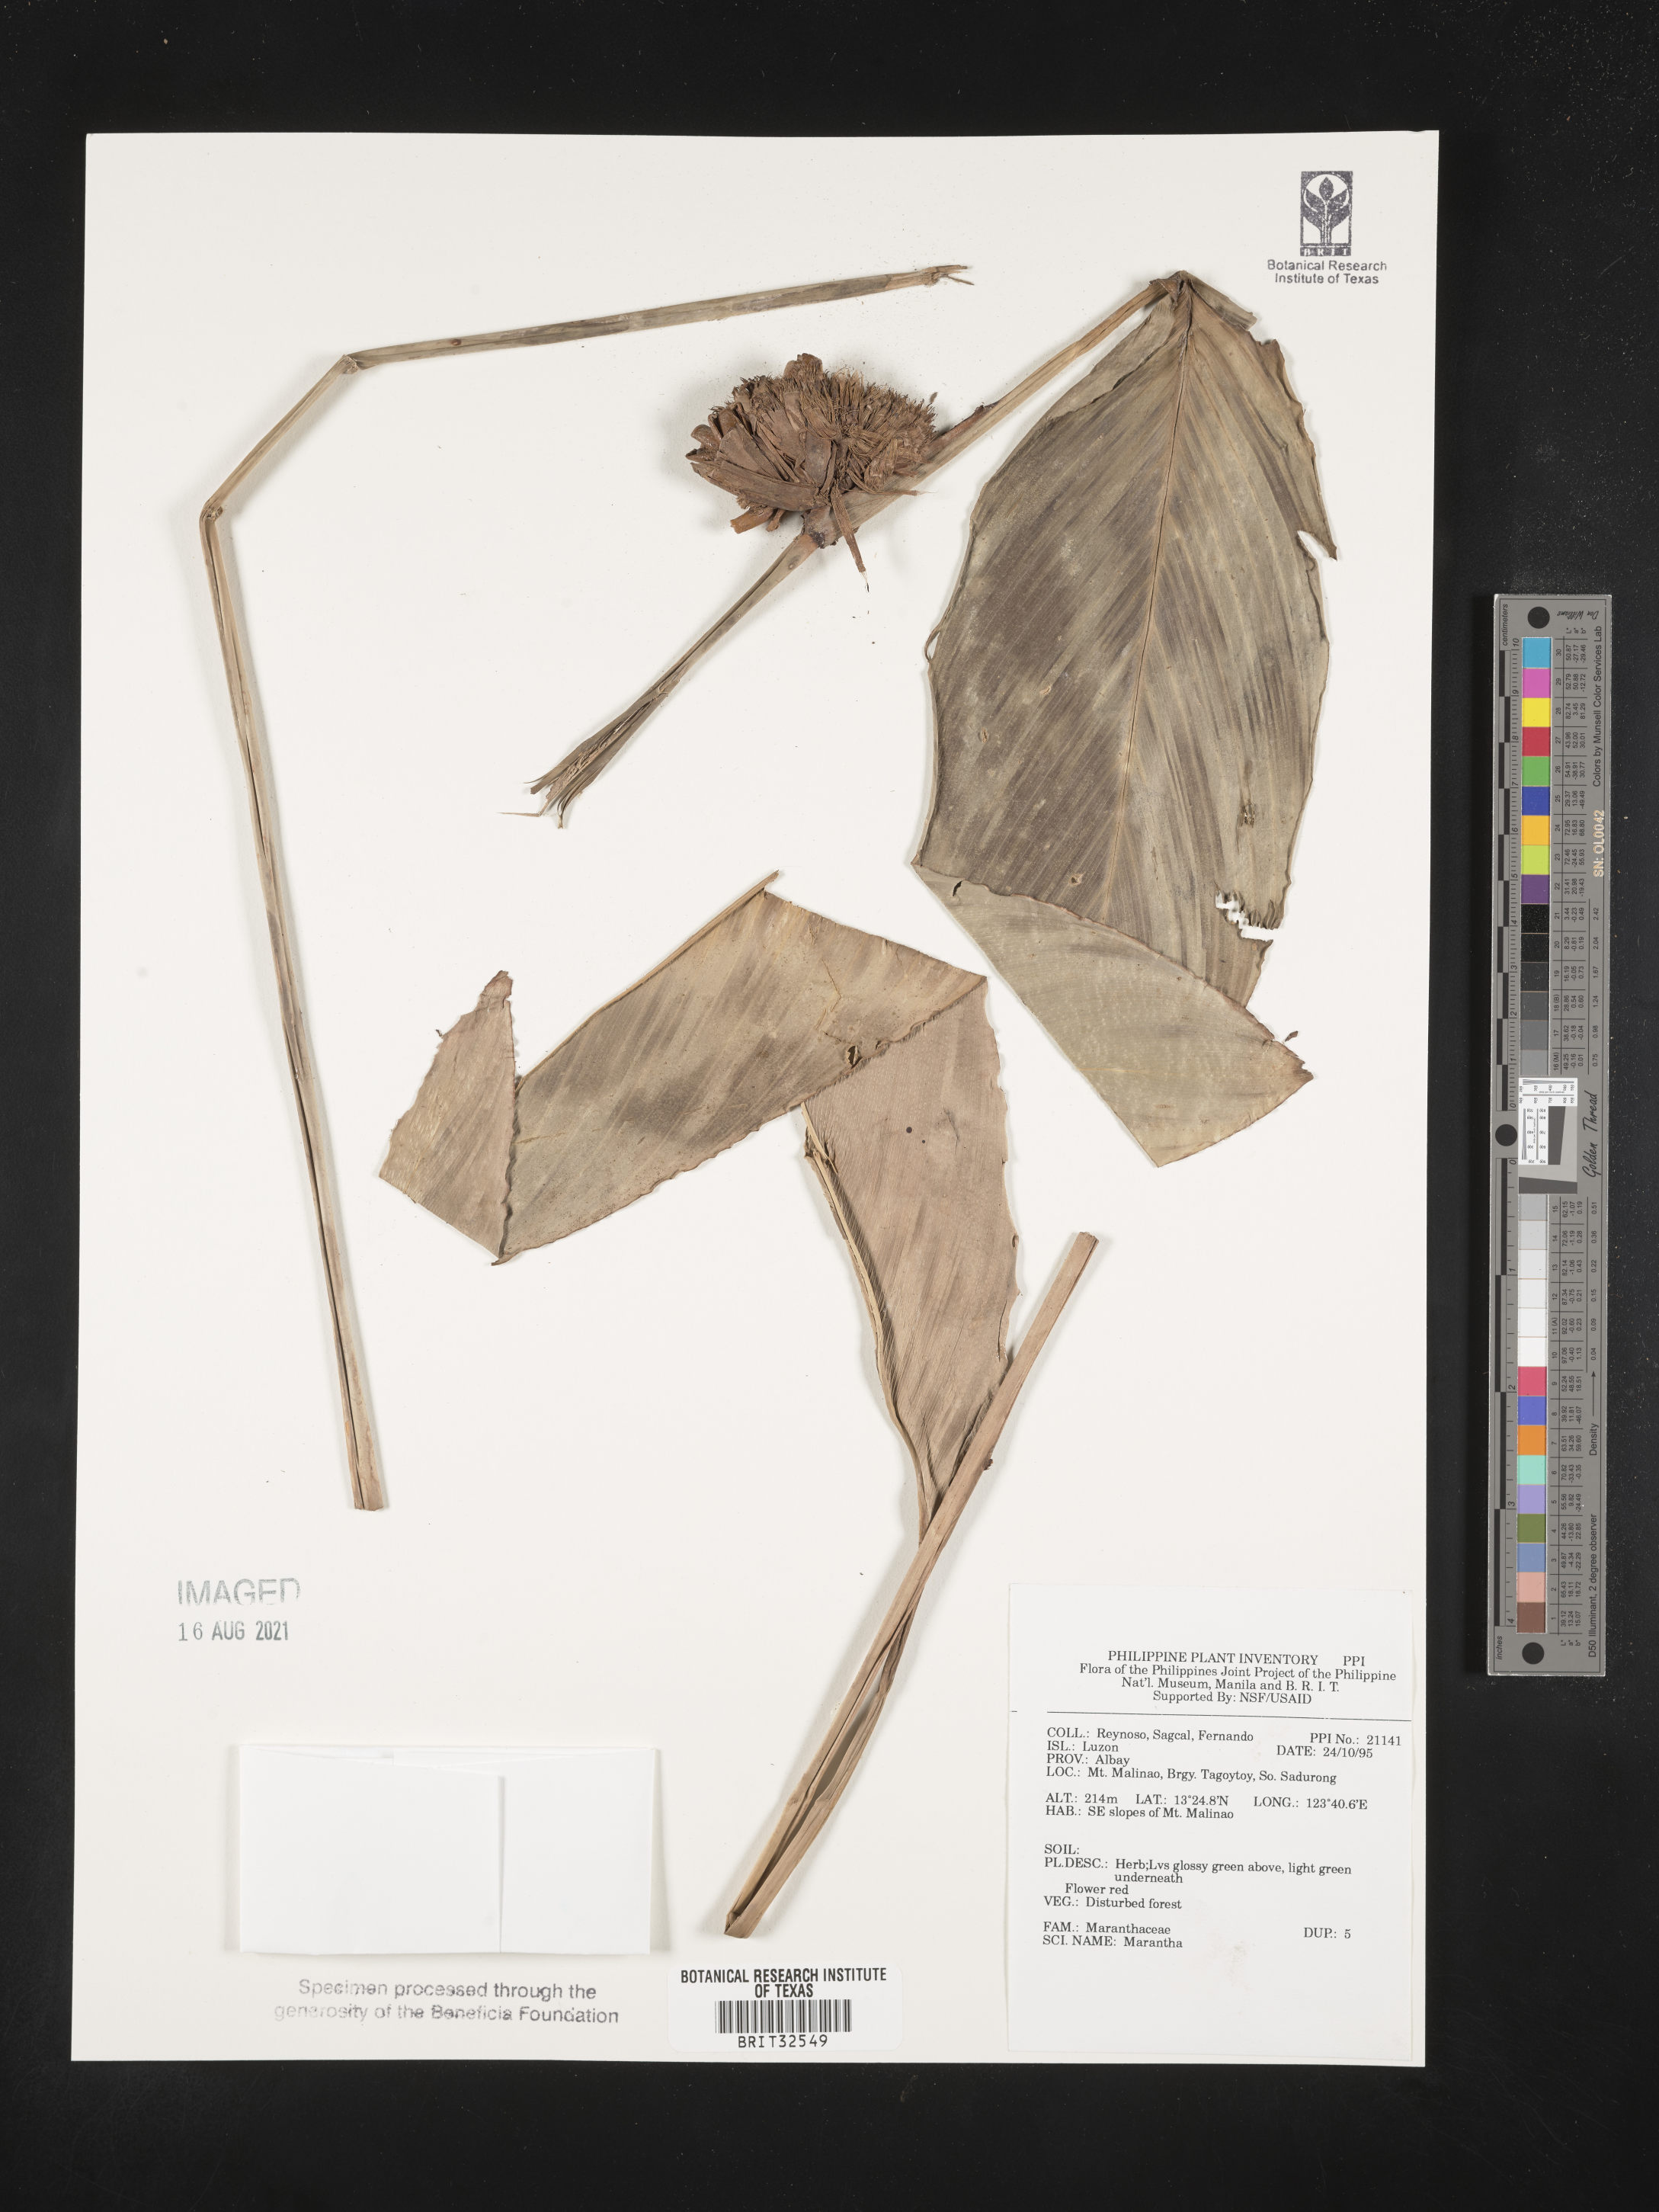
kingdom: Plantae
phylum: Tracheophyta
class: Liliopsida
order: Zingiberales
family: Marantaceae
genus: Maranta
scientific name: Maranta
